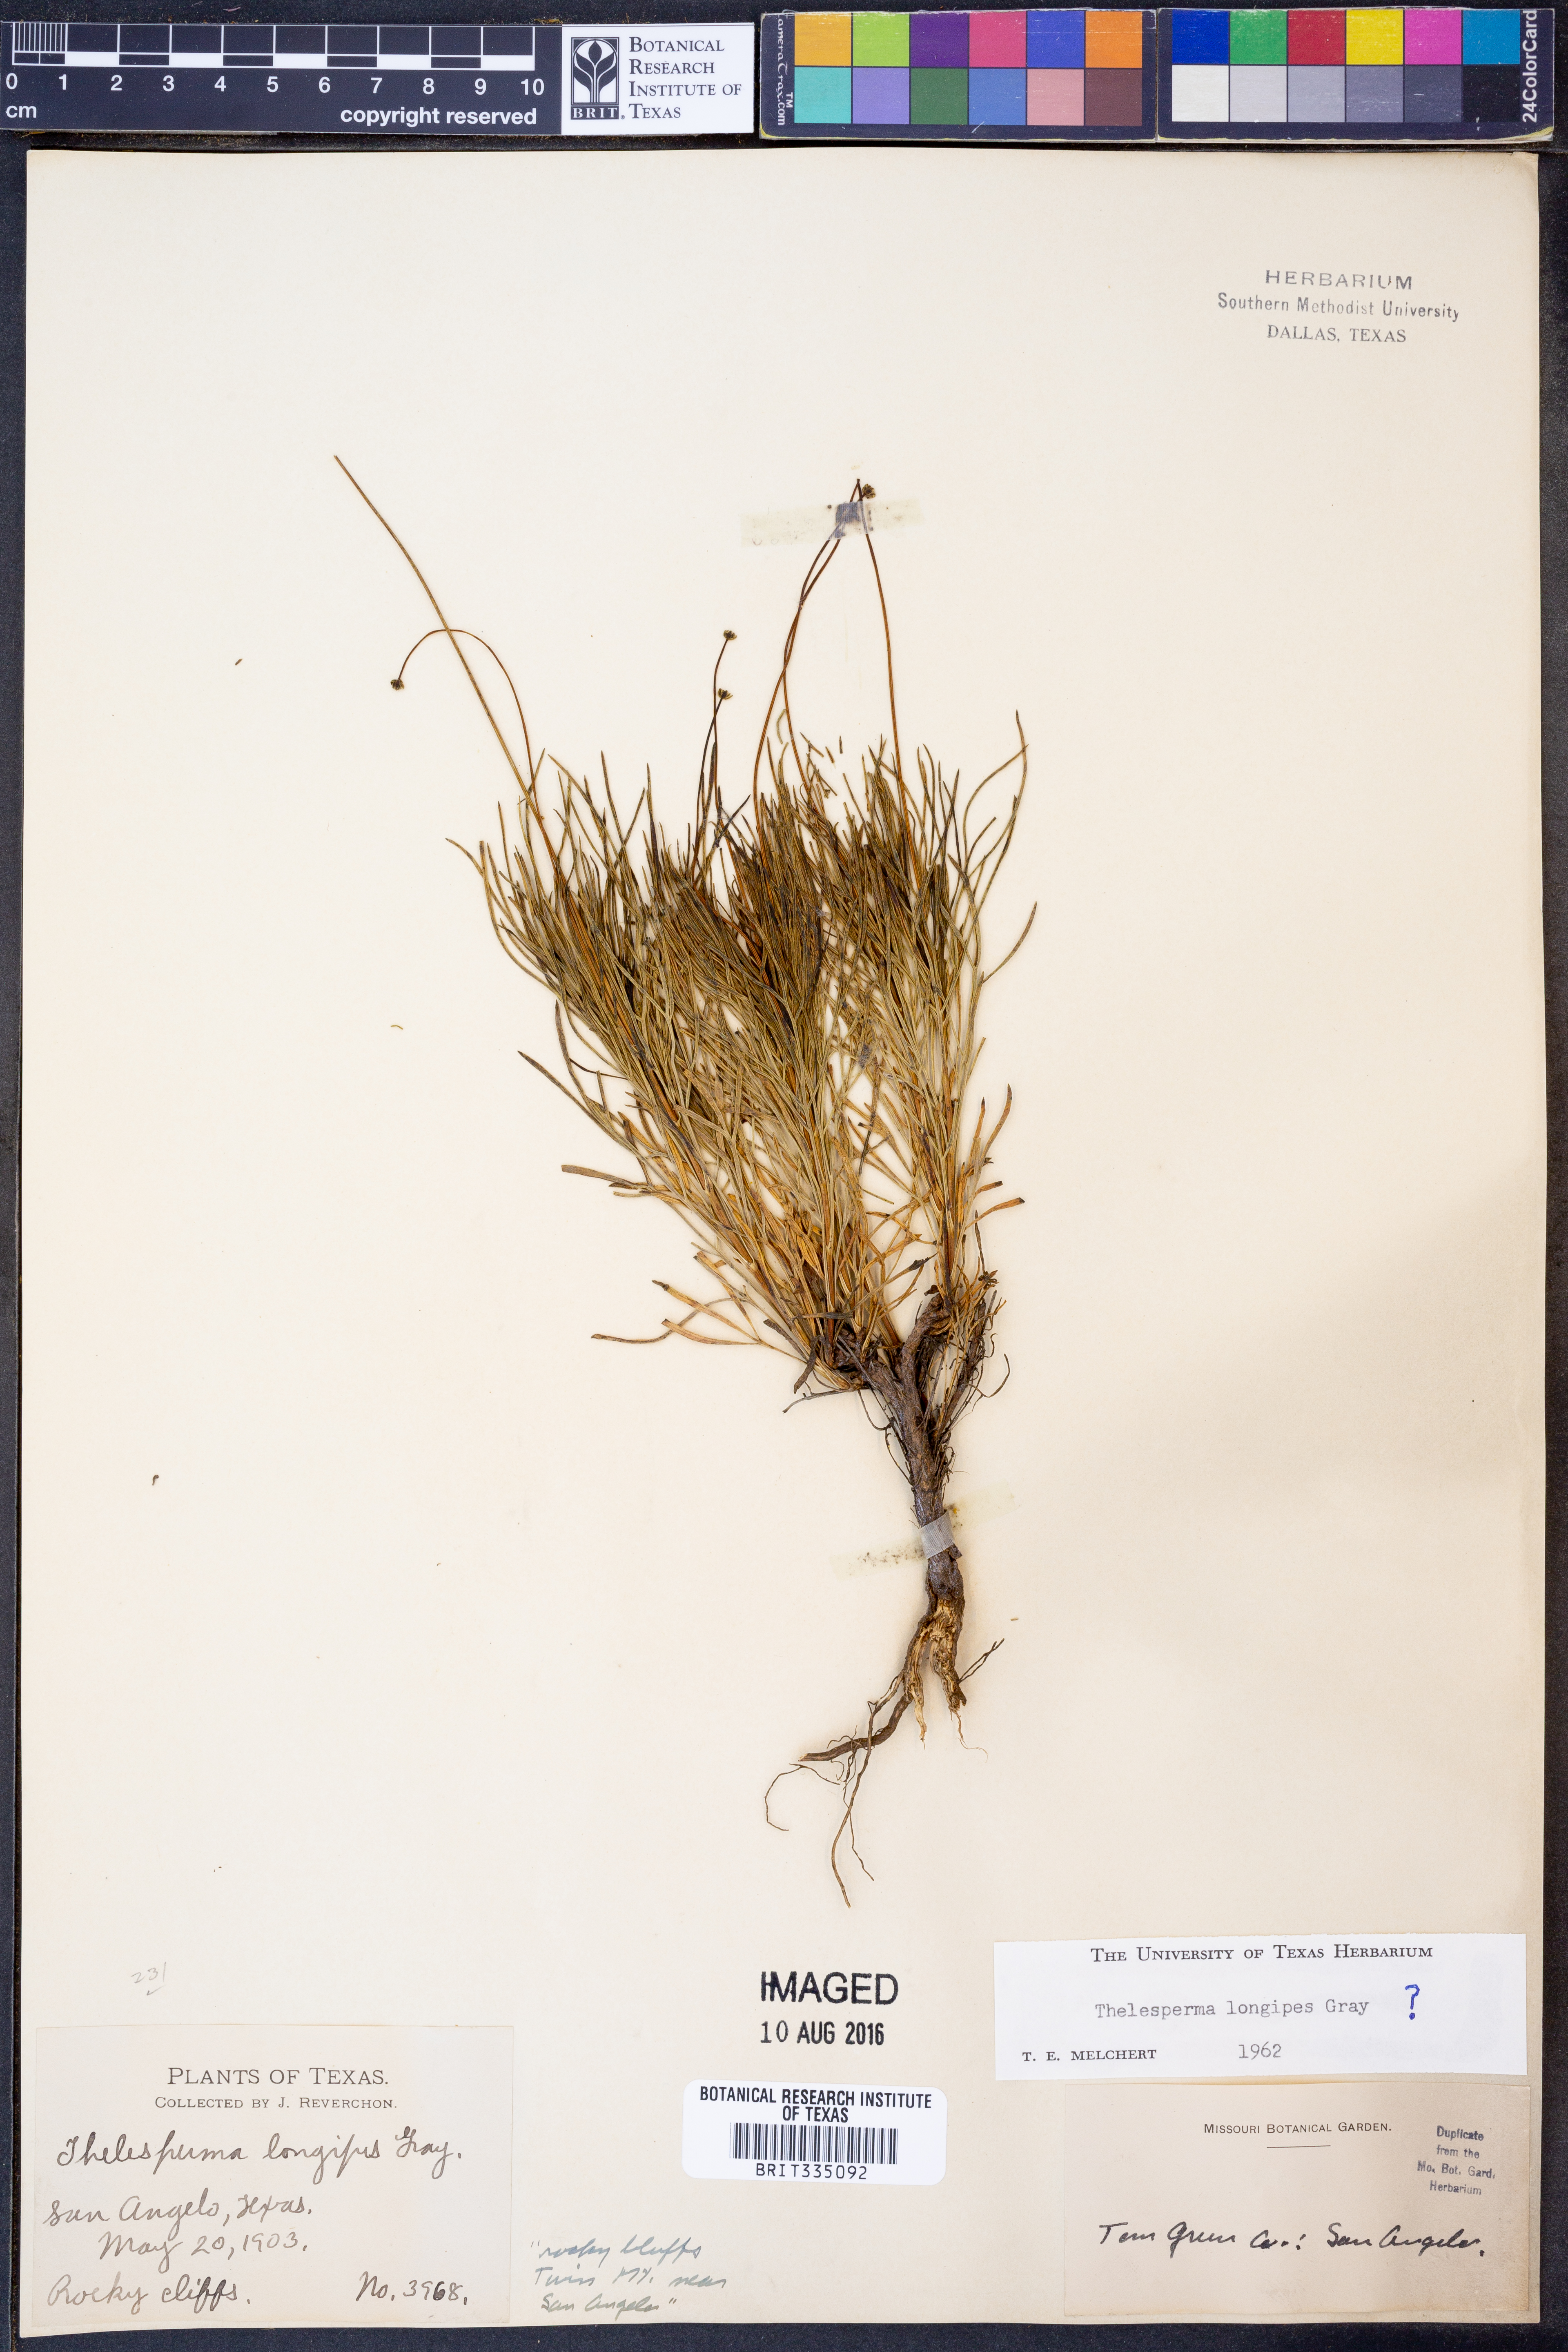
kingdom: Plantae
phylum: Tracheophyta
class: Magnoliopsida
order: Asterales
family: Asteraceae
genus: Thelesperma
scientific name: Thelesperma longipes
